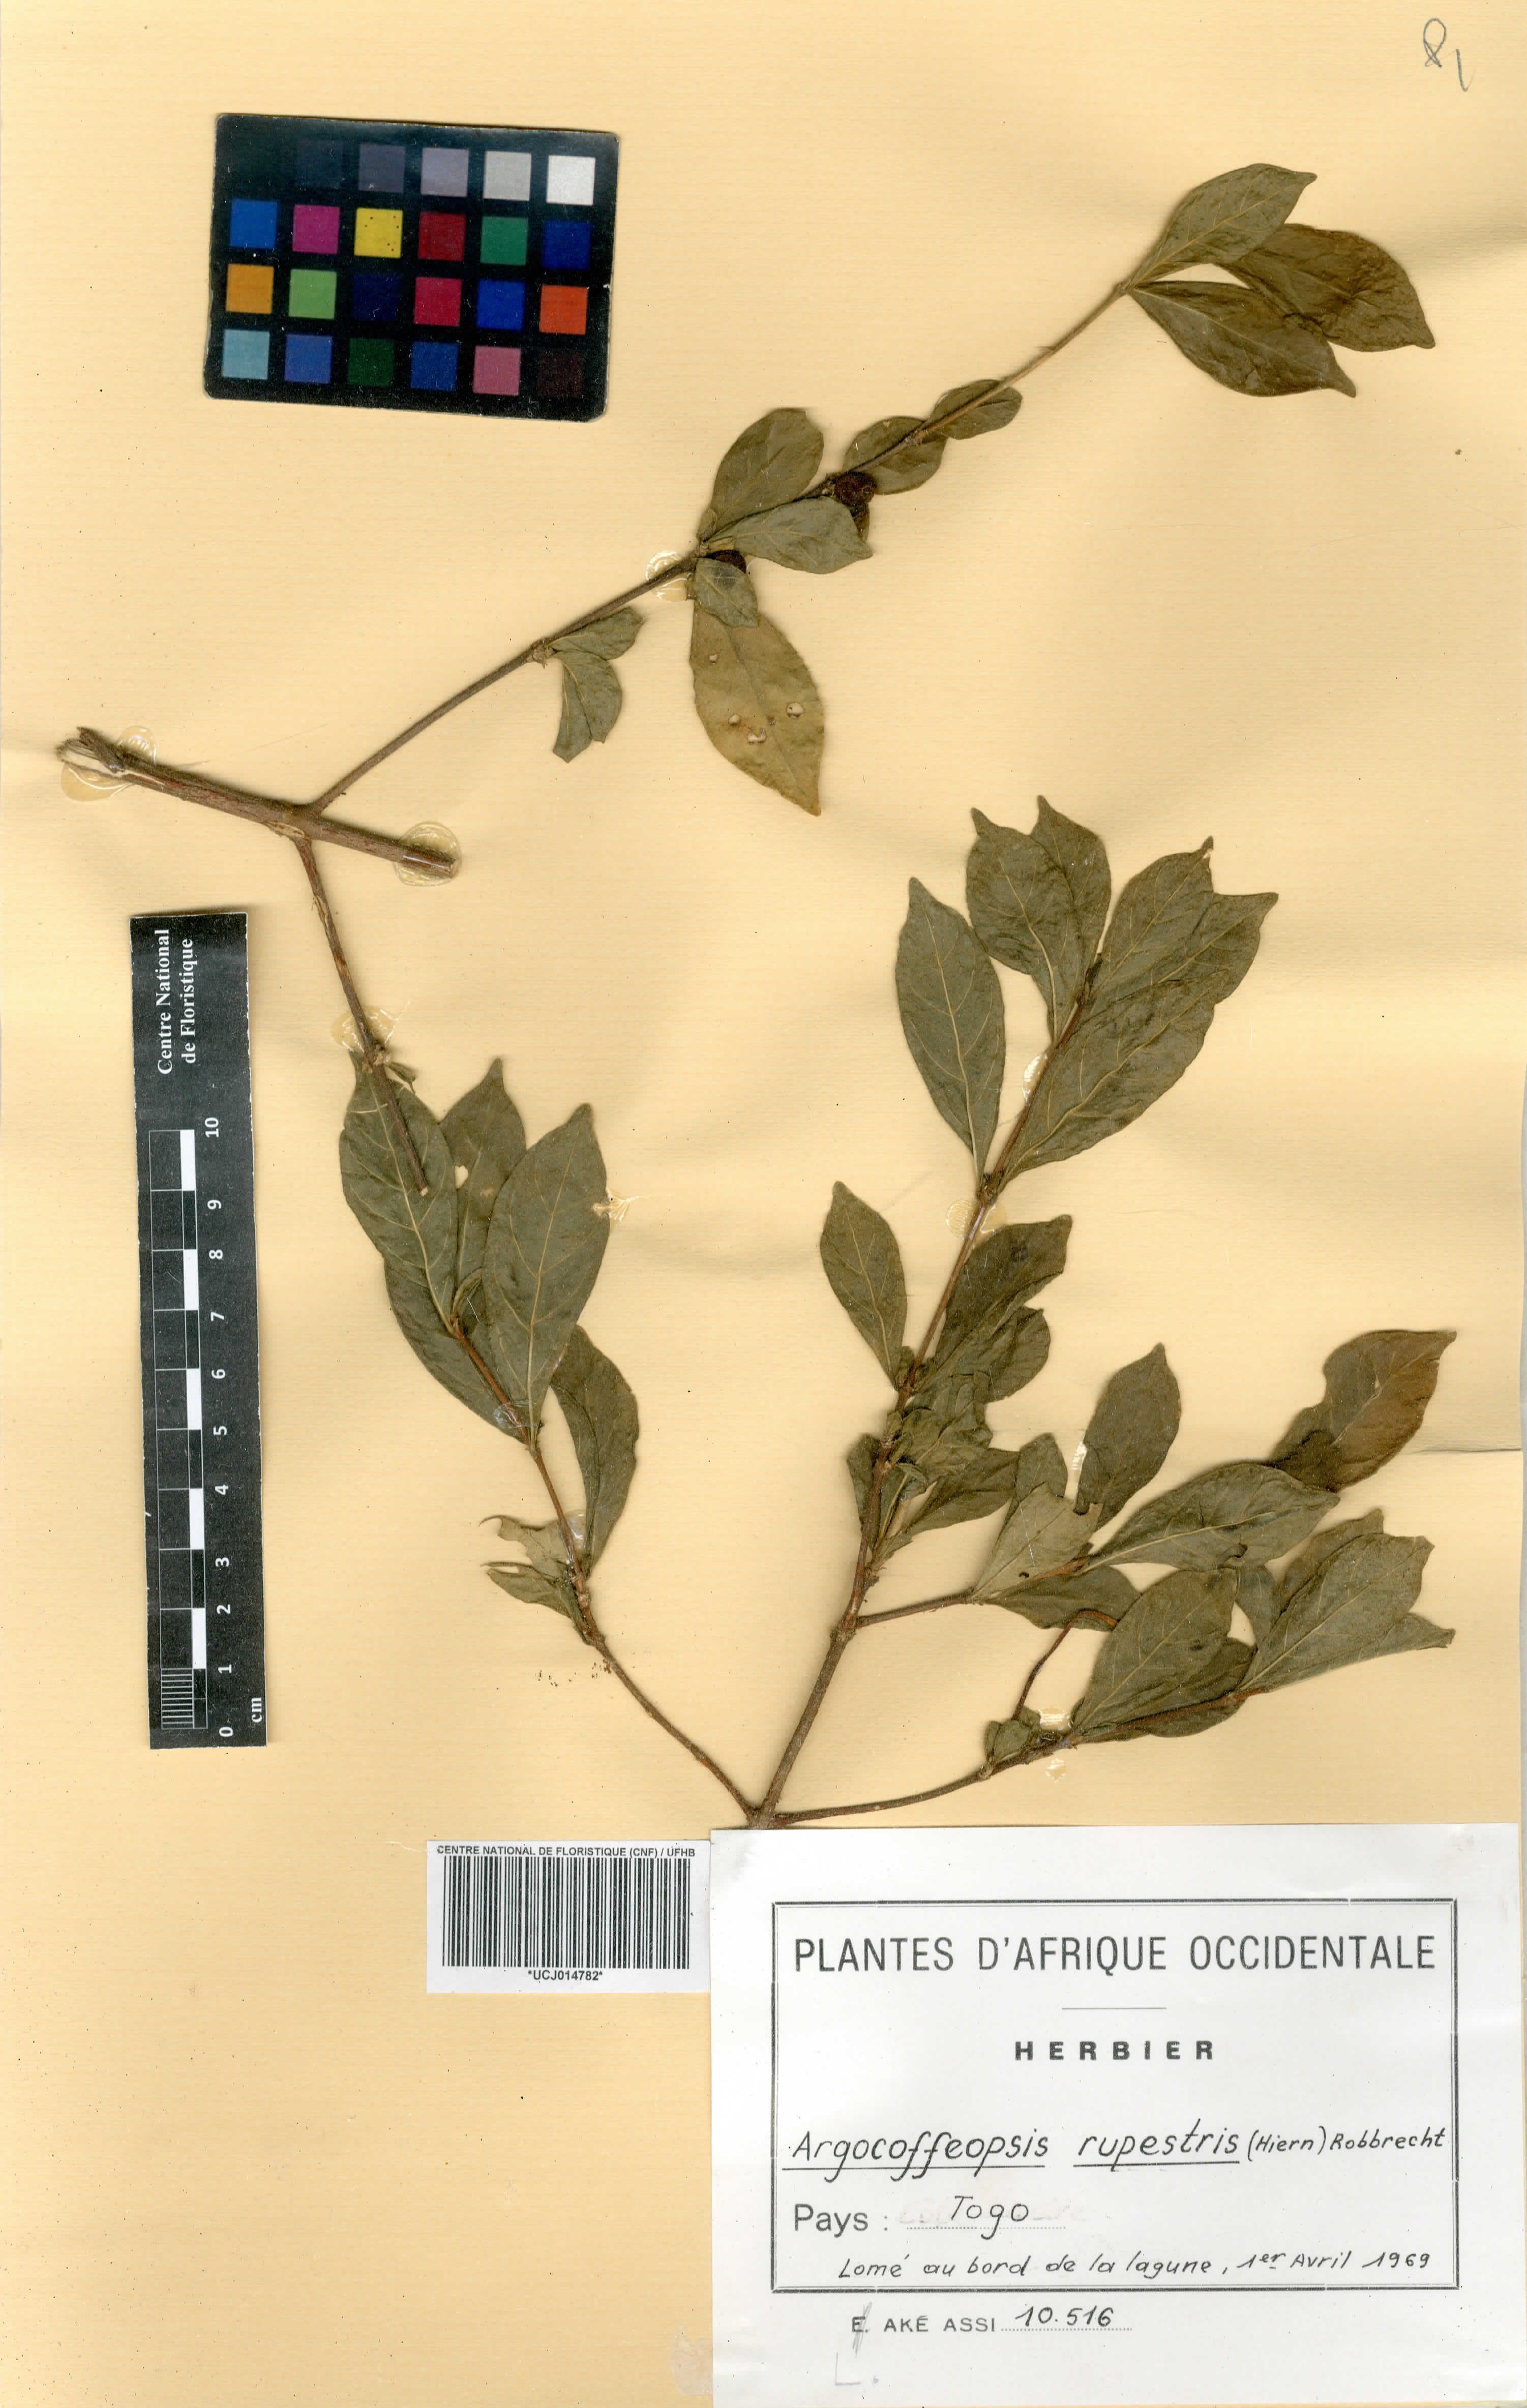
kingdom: Plantae
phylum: Tracheophyta
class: Magnoliopsida
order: Gentianales
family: Rubiaceae
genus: Argocoffeopsis
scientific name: Argocoffeopsis rupestris
